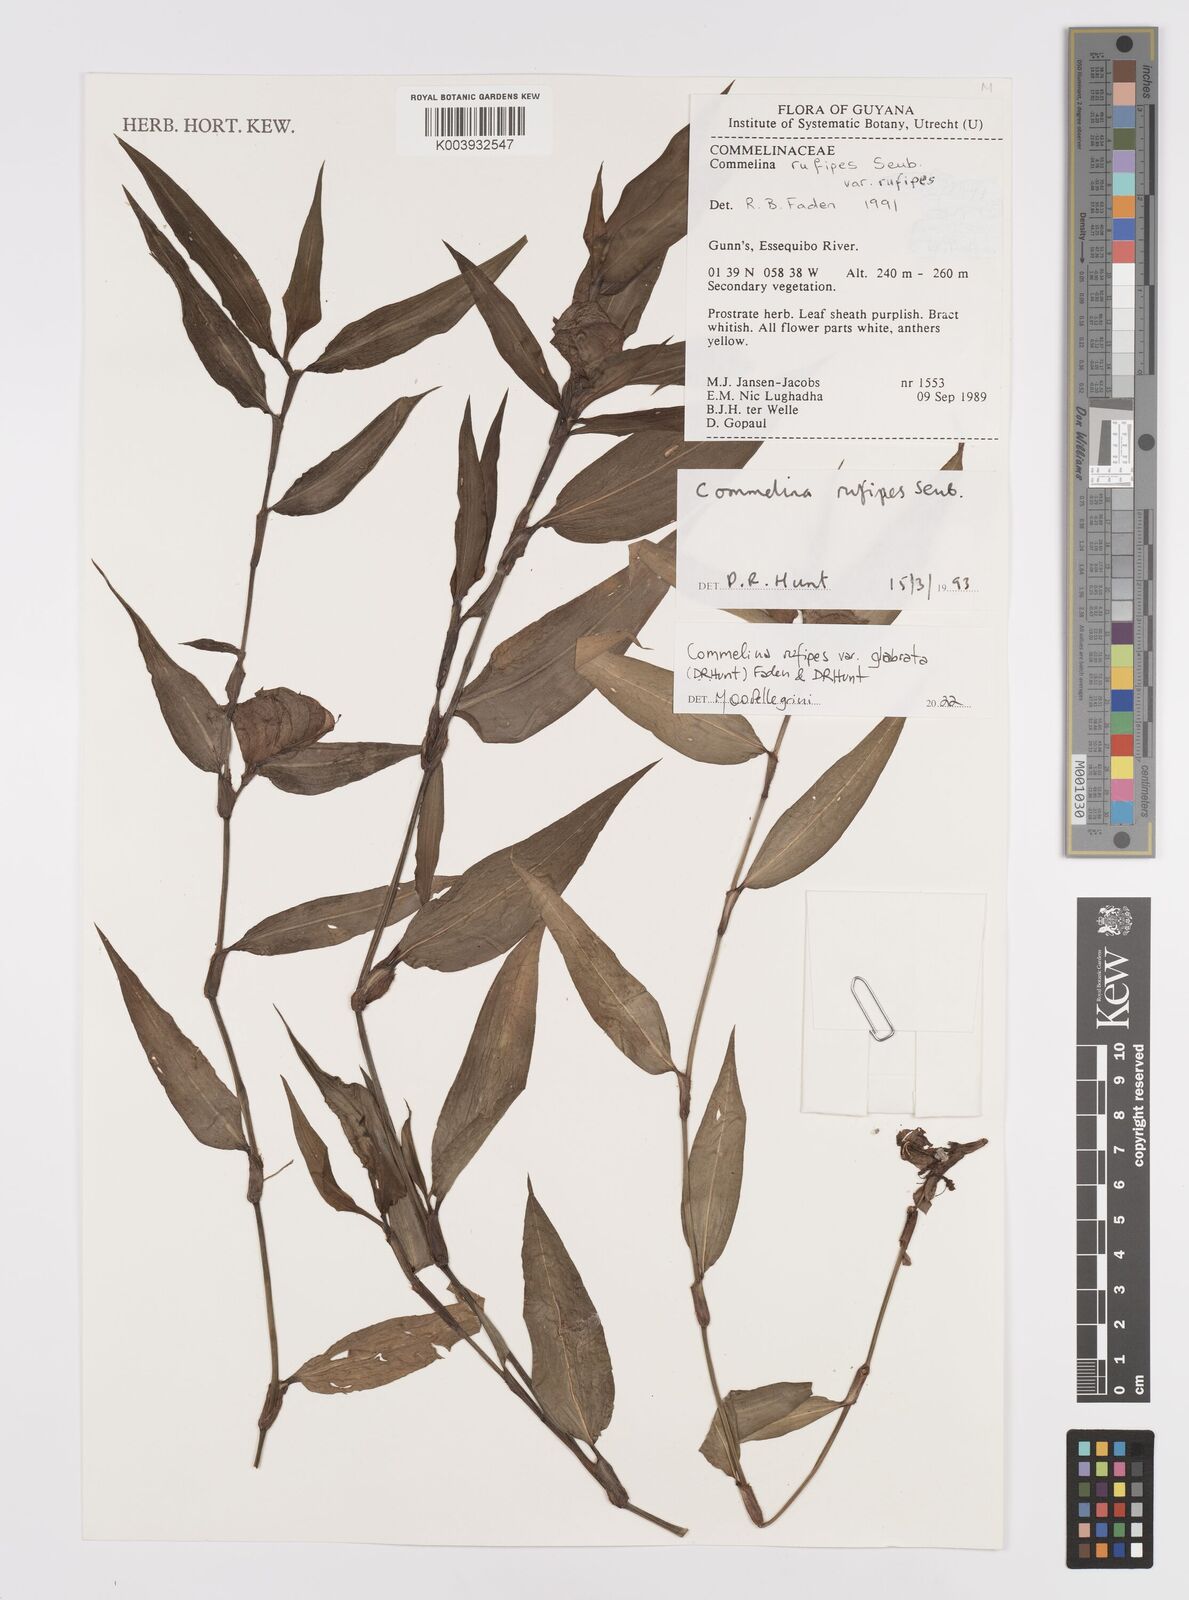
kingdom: Plantae
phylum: Tracheophyta
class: Liliopsida
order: Commelinales
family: Commelinaceae
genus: Commelina
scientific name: Commelina rufipes
